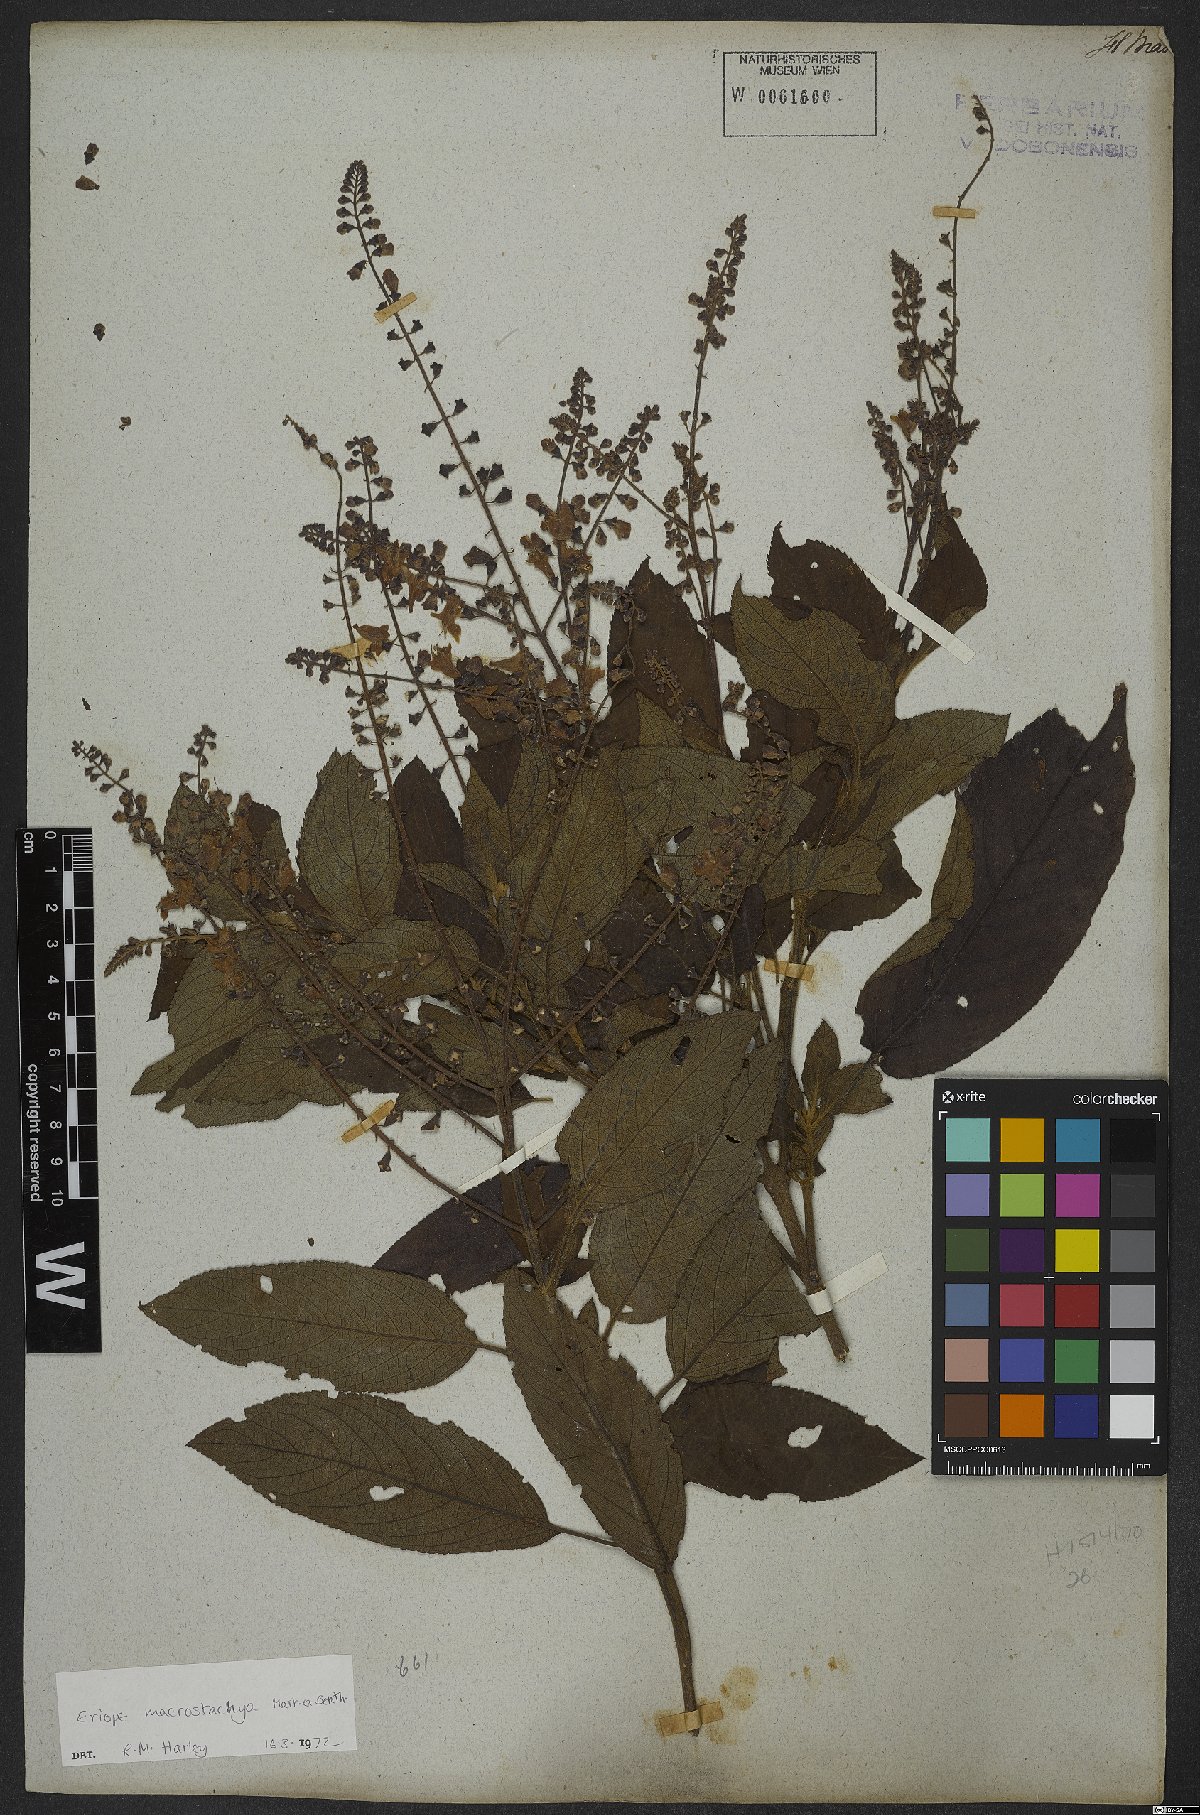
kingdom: Plantae
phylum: Tracheophyta
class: Magnoliopsida
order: Lamiales
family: Lamiaceae
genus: Eriope
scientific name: Eriope macrostachya
